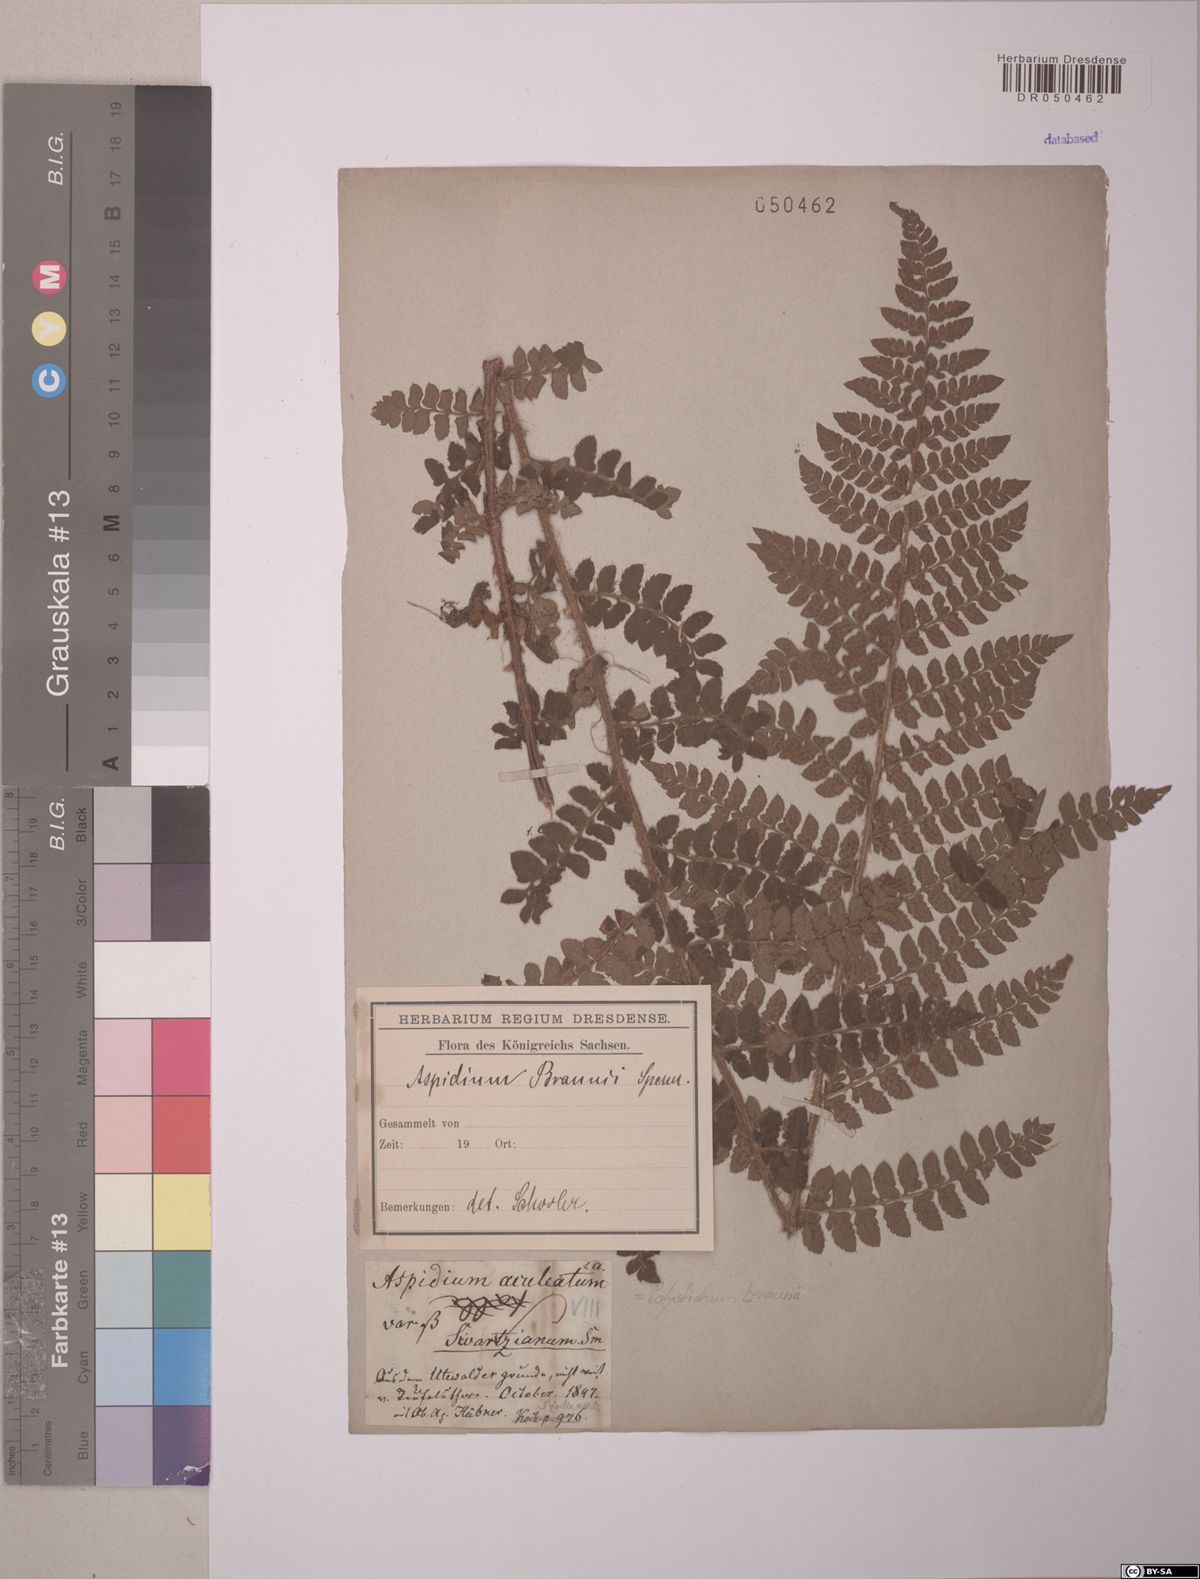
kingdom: Plantae
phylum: Tracheophyta
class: Polypodiopsida
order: Polypodiales
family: Dryopteridaceae
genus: Polystichum
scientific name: Polystichum braunii
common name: Braun's holly fern
